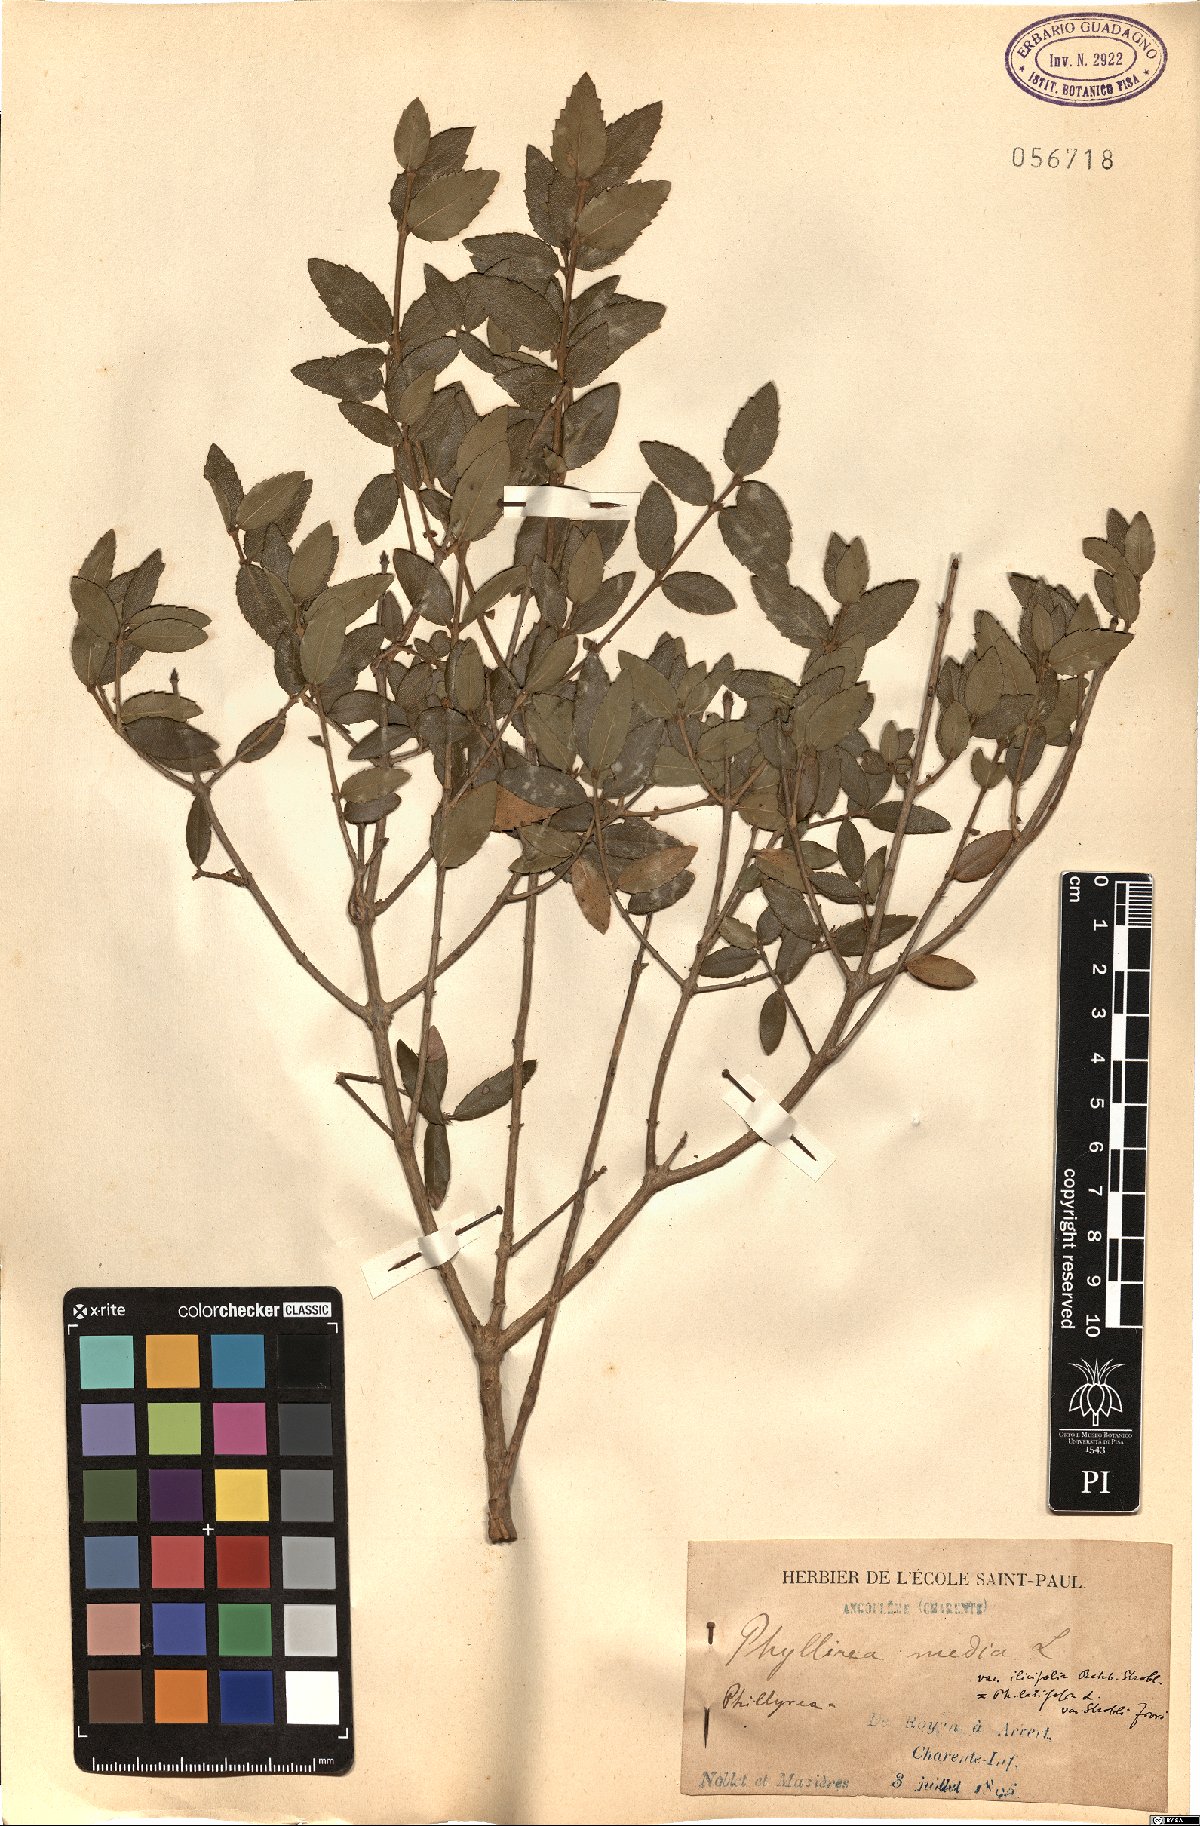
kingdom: Plantae
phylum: Tracheophyta
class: Magnoliopsida
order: Lamiales
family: Oleaceae
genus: Phillyrea
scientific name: Phillyrea latifolia
